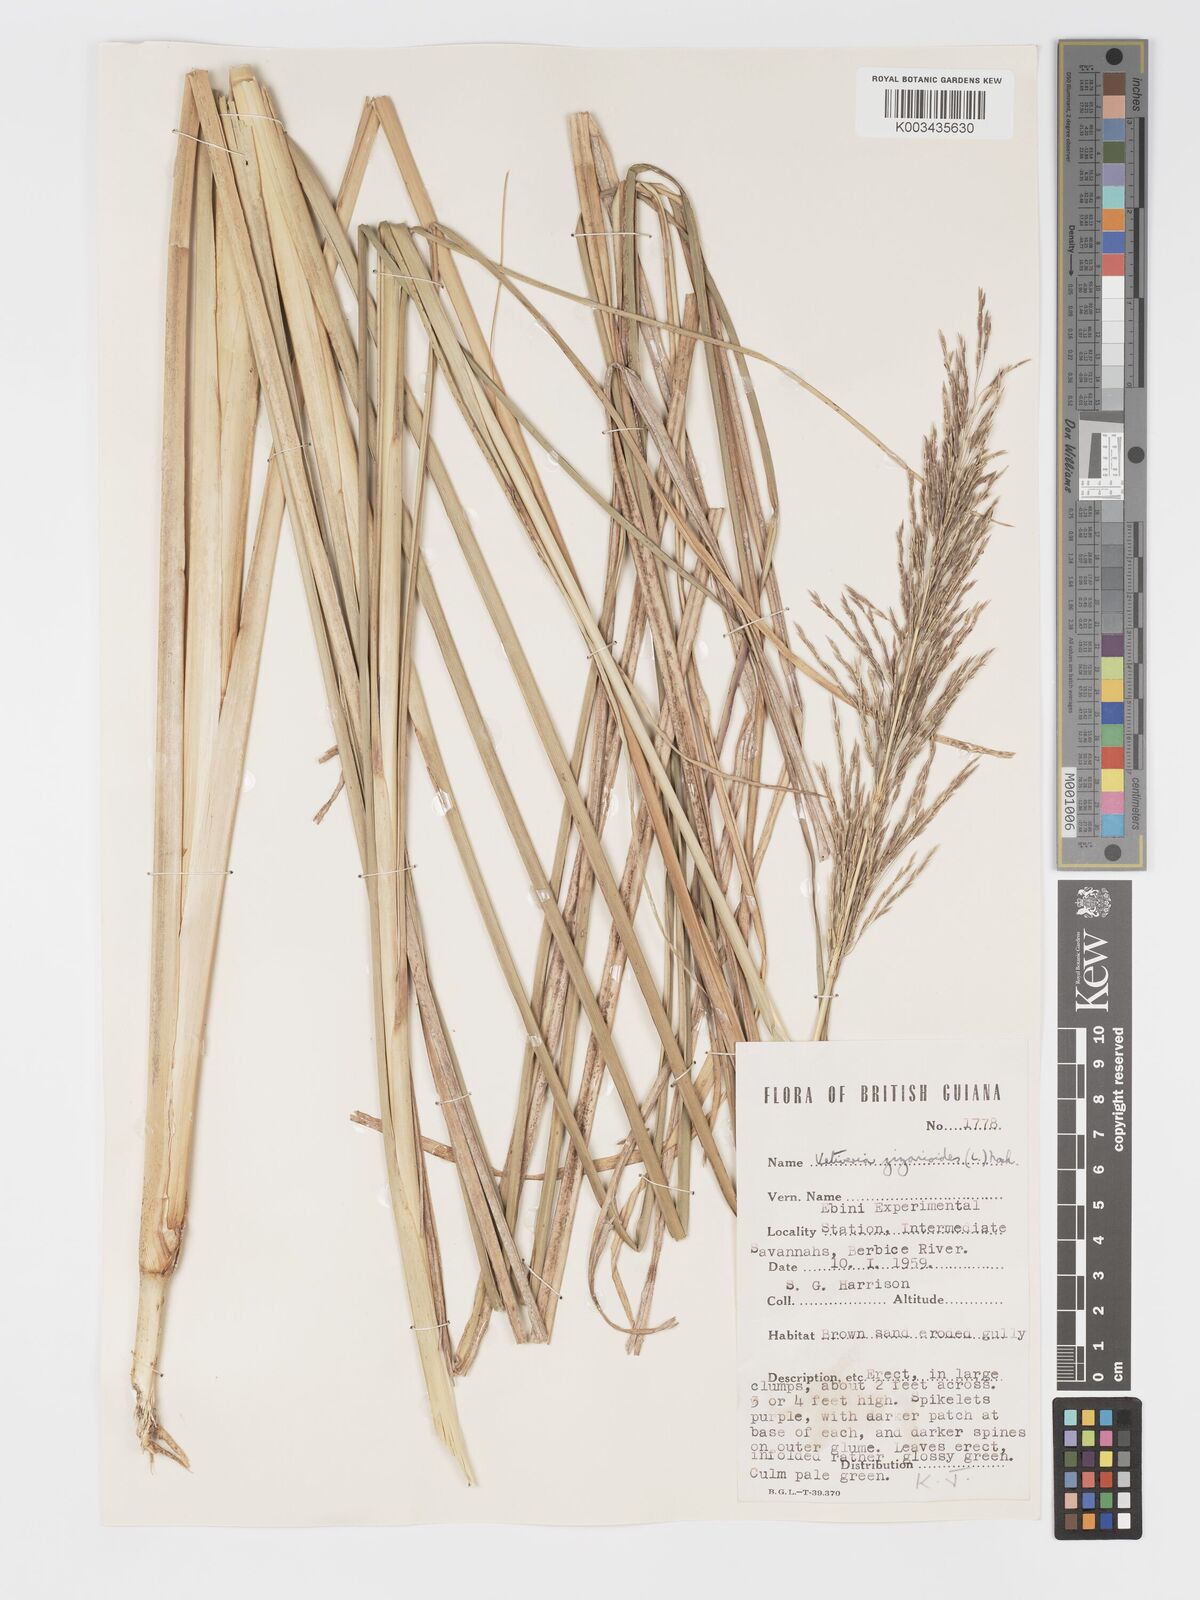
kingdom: Plantae
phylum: Tracheophyta
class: Liliopsida
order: Poales
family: Poaceae
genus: Chrysopogon
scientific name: Chrysopogon zizanioides
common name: False beardgrass
